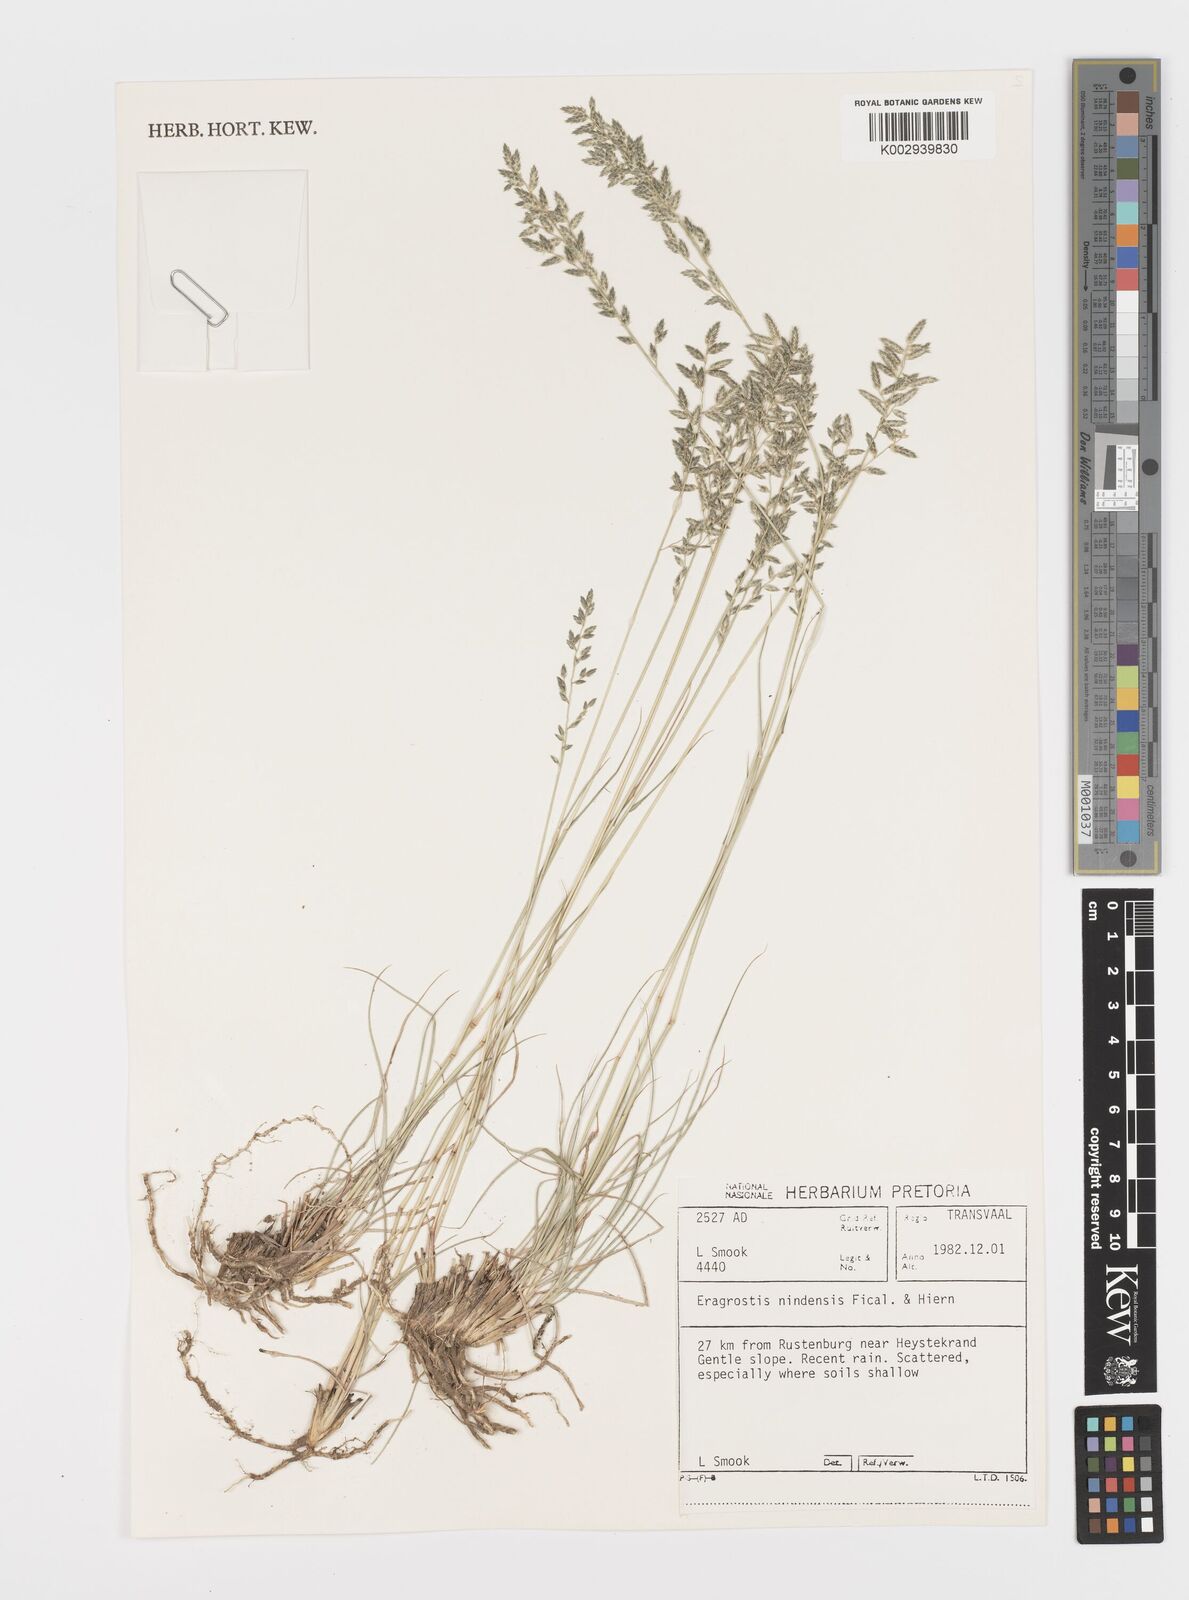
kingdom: Plantae
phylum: Tracheophyta
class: Liliopsida
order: Poales
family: Poaceae
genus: Eragrostis
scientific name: Eragrostis nindensis
